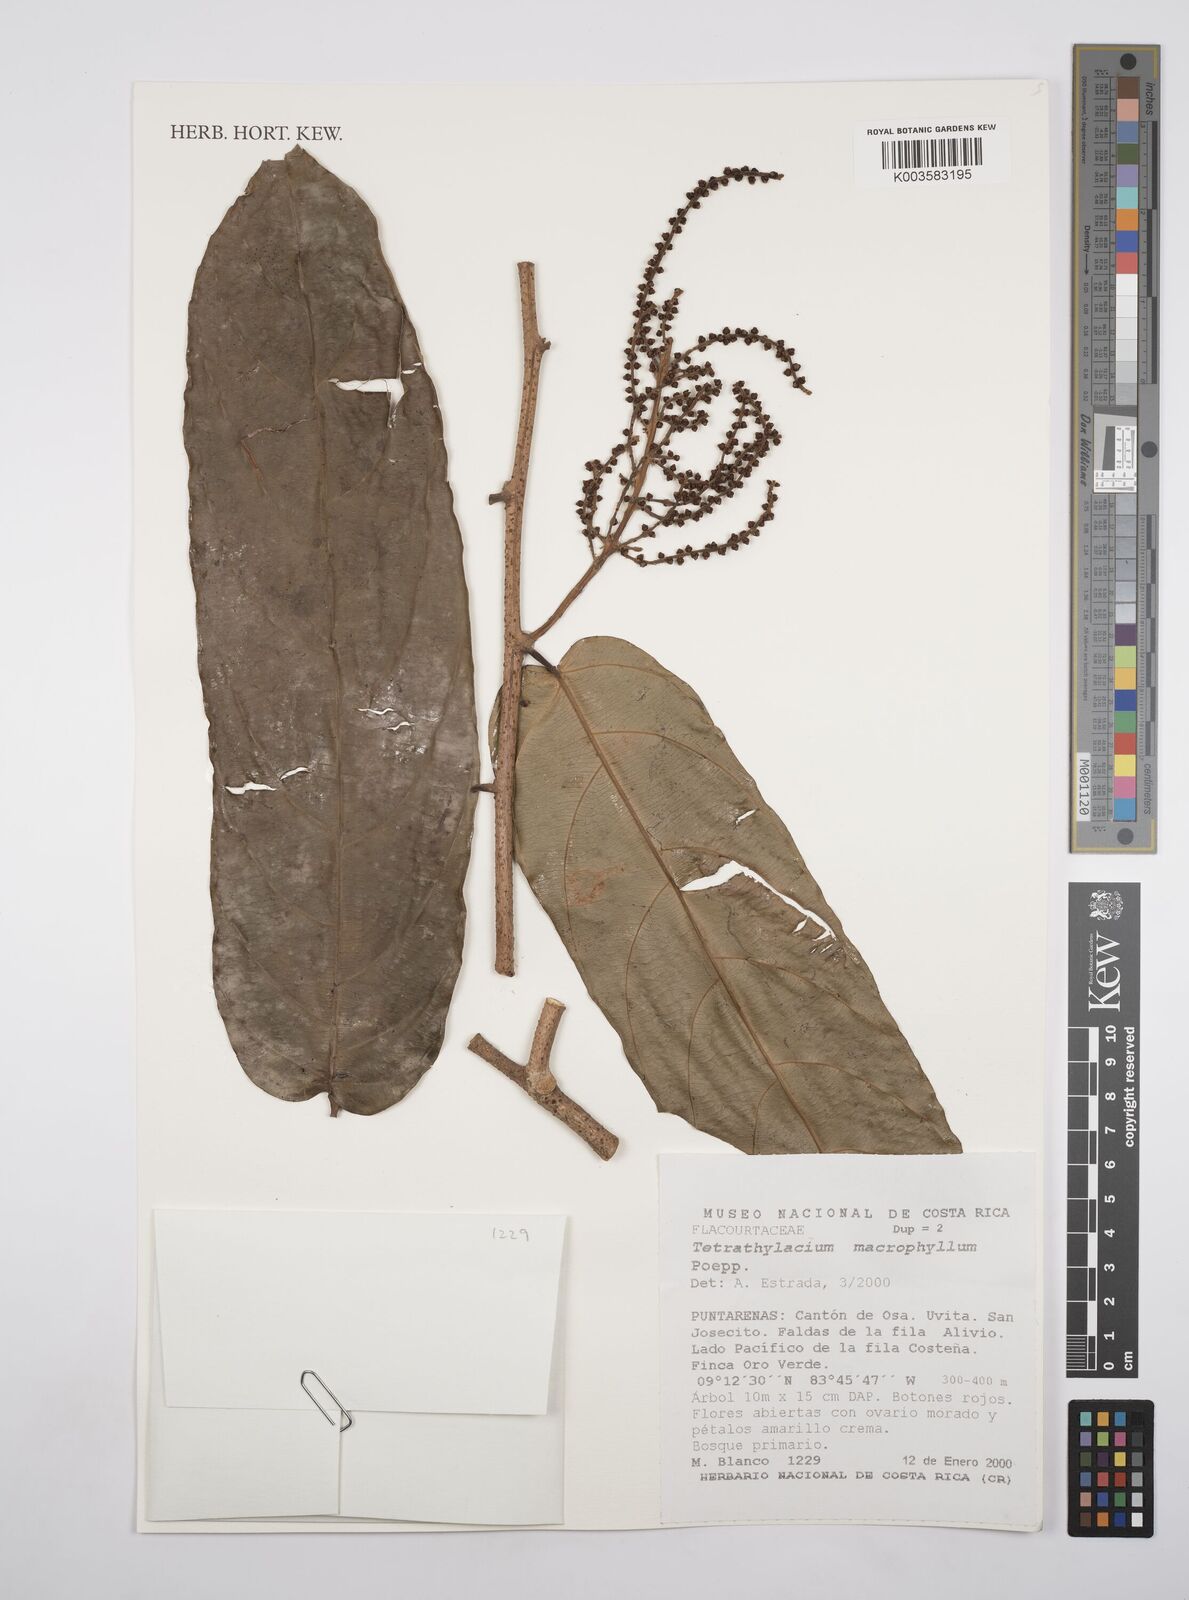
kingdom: Plantae
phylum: Tracheophyta
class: Magnoliopsida
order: Malpighiales
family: Salicaceae
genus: Tetrathylacium
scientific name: Tetrathylacium macrophyllum
